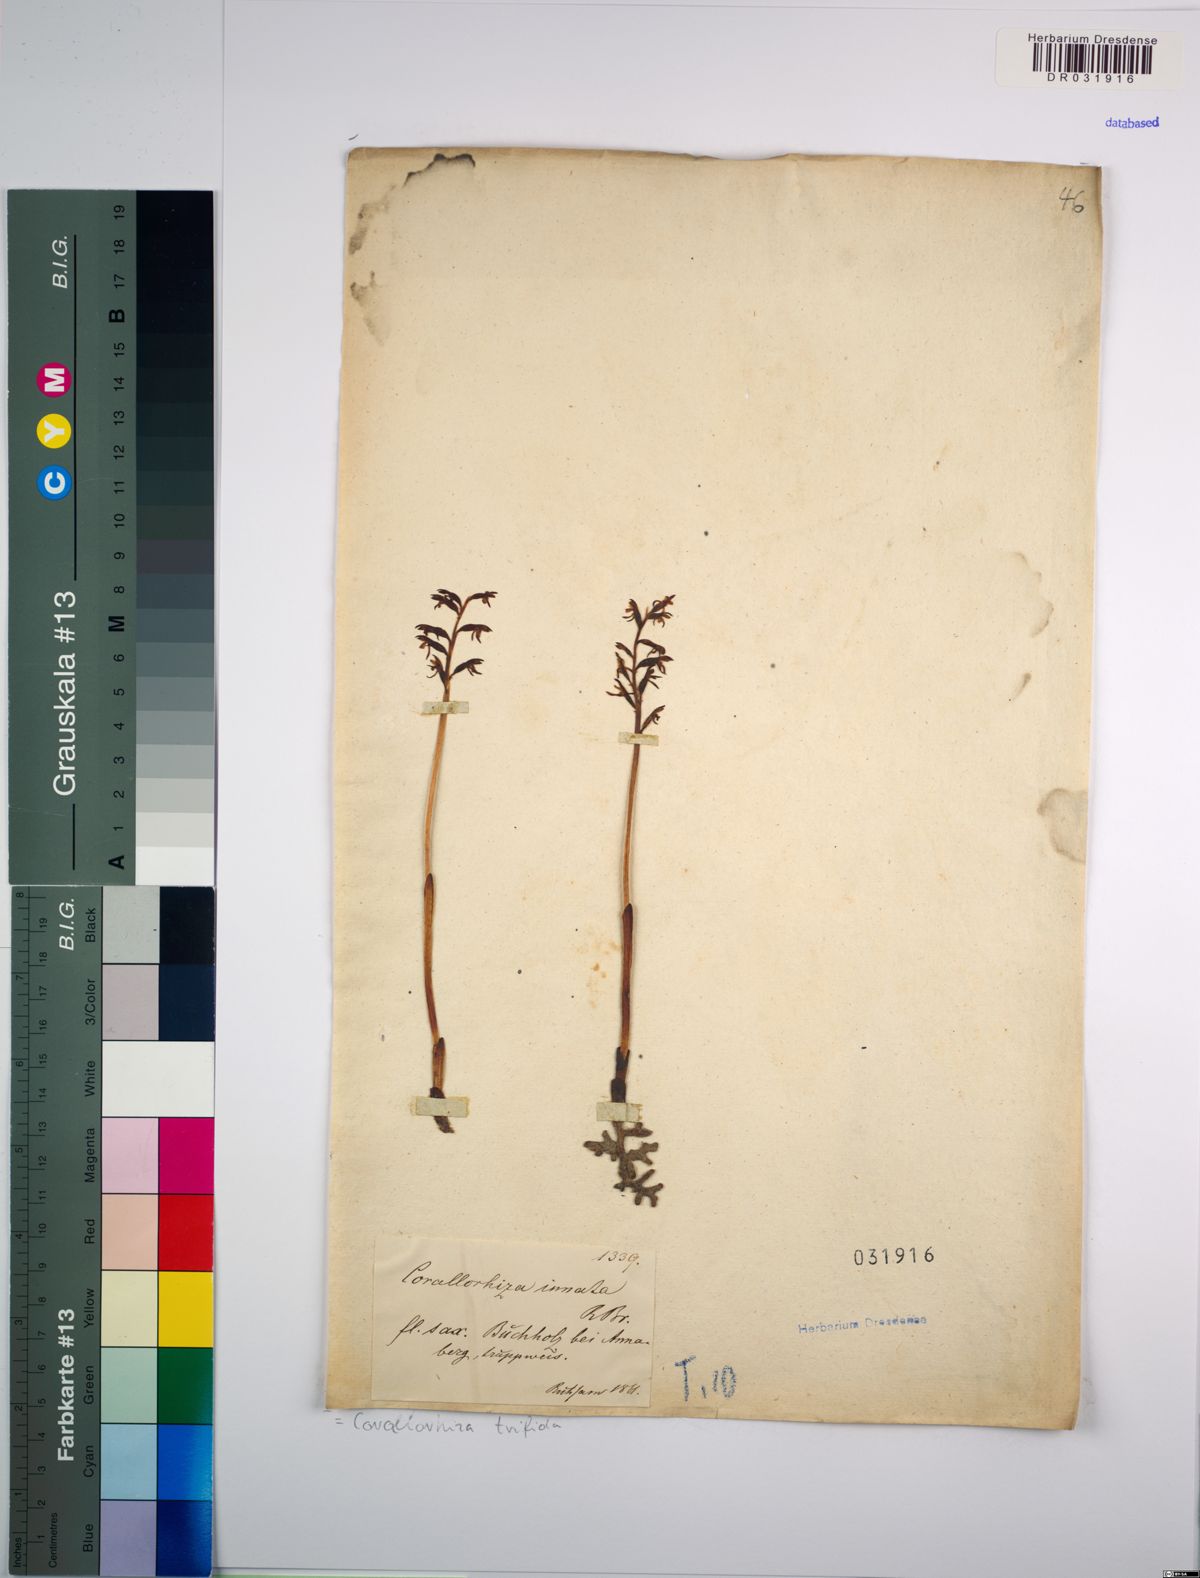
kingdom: Plantae
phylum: Tracheophyta
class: Liliopsida
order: Asparagales
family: Orchidaceae
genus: Corallorhiza
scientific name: Corallorhiza trifida
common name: Yellow coralroot
